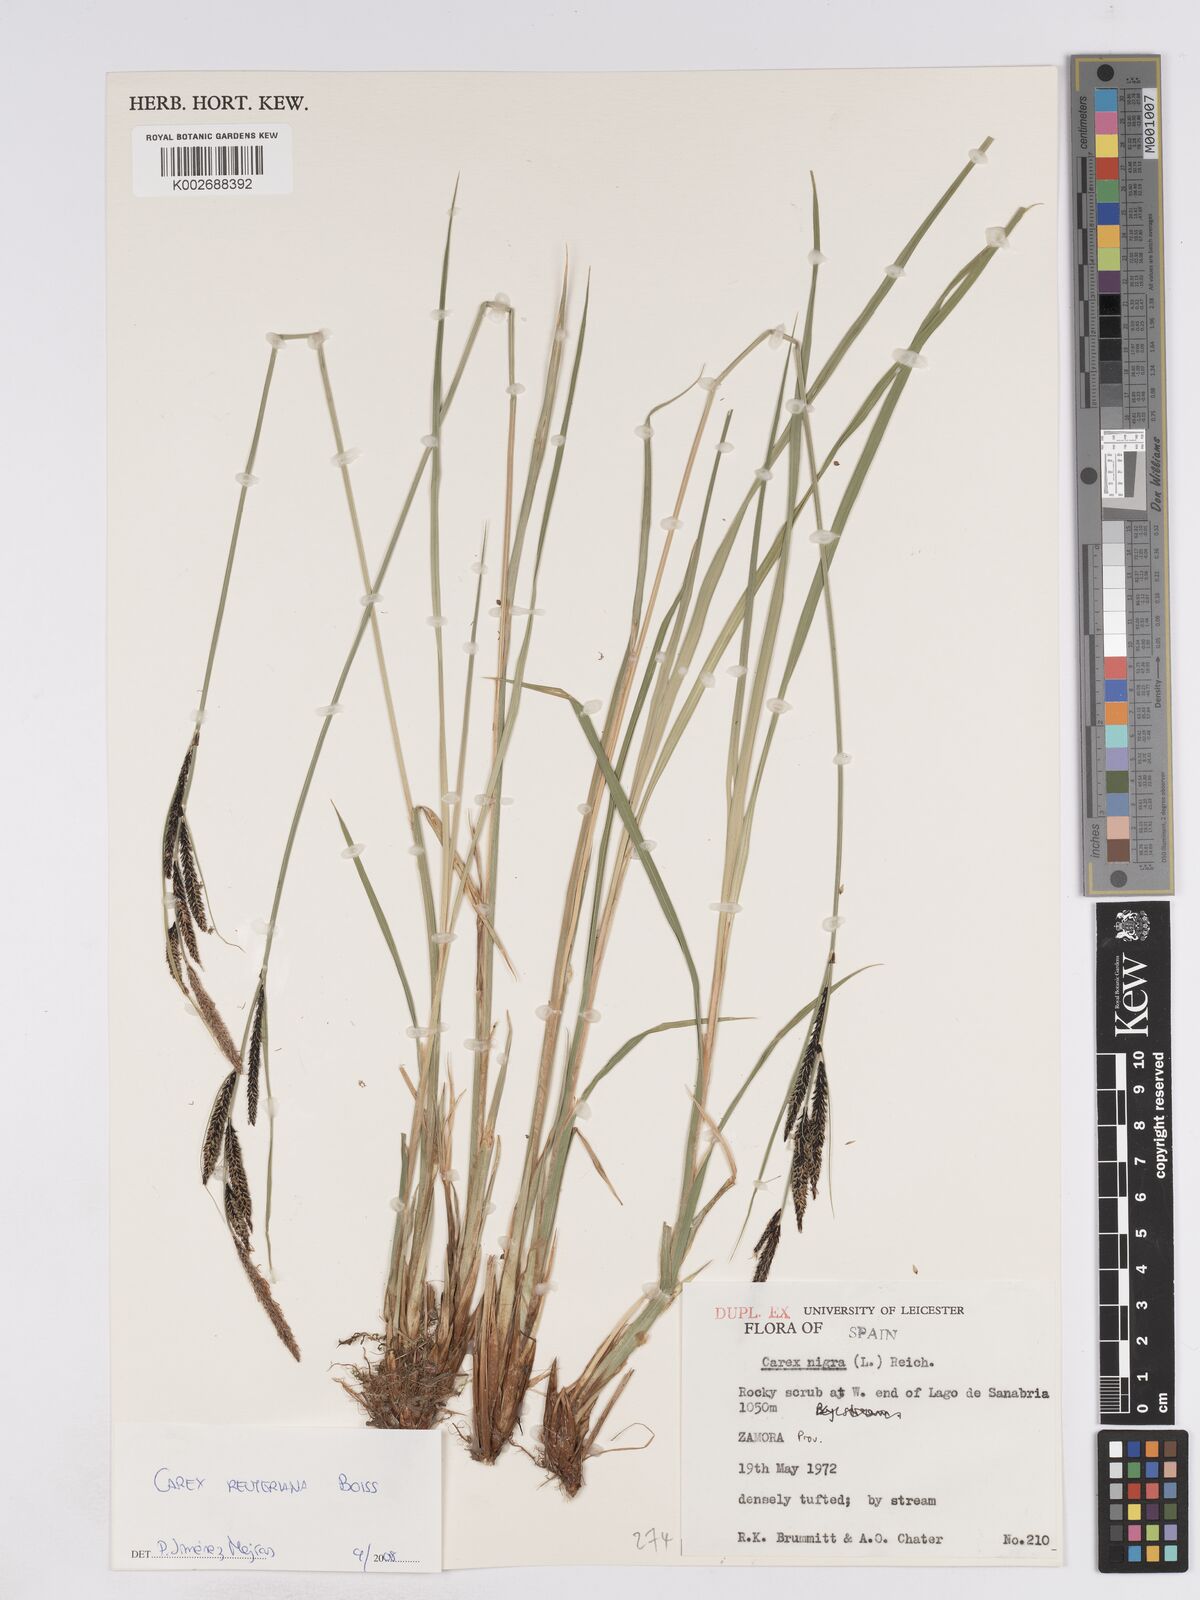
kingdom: Plantae
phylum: Tracheophyta
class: Liliopsida
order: Poales
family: Cyperaceae
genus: Carex
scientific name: Carex reuteriana
